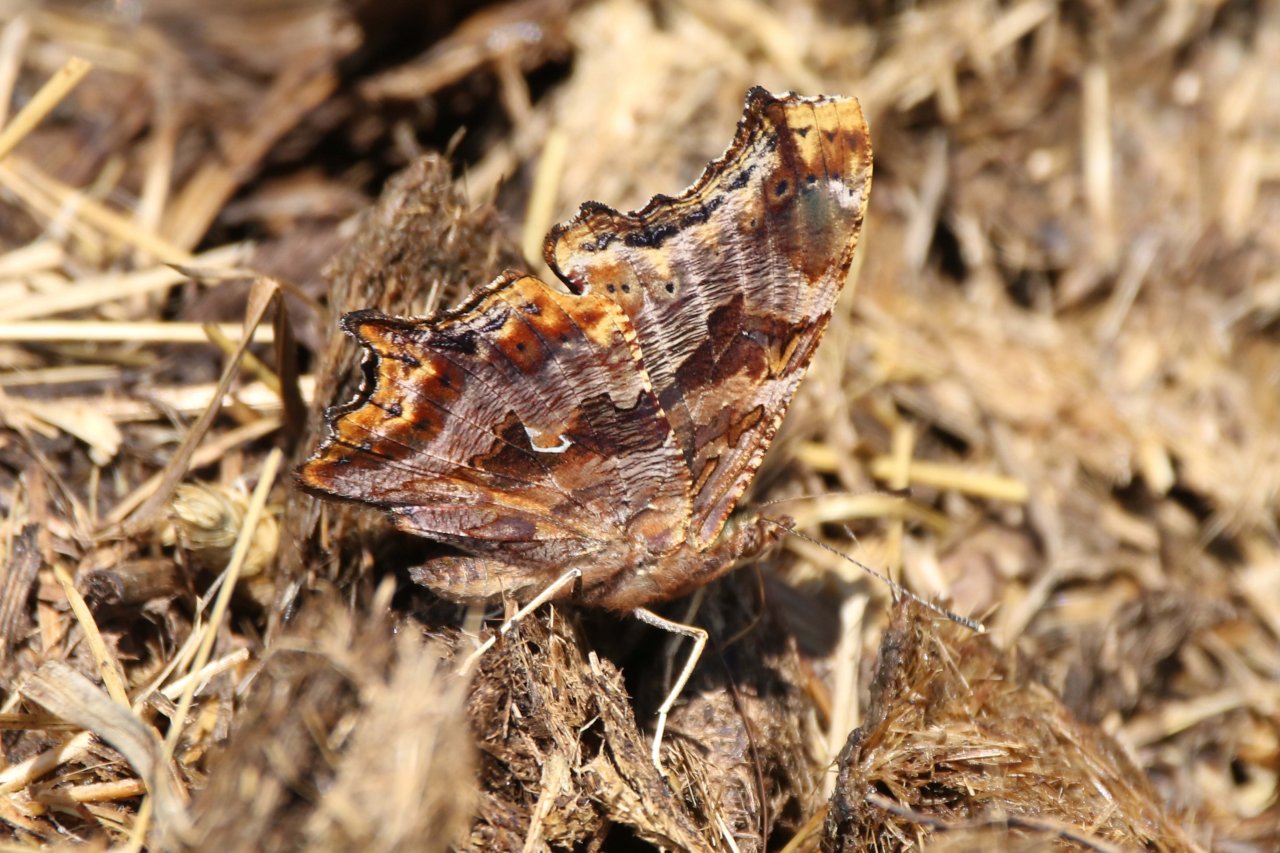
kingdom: Animalia
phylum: Arthropoda
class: Insecta
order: Lepidoptera
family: Nymphalidae
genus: Polygonia
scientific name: Polygonia comma
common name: Eastern Comma
